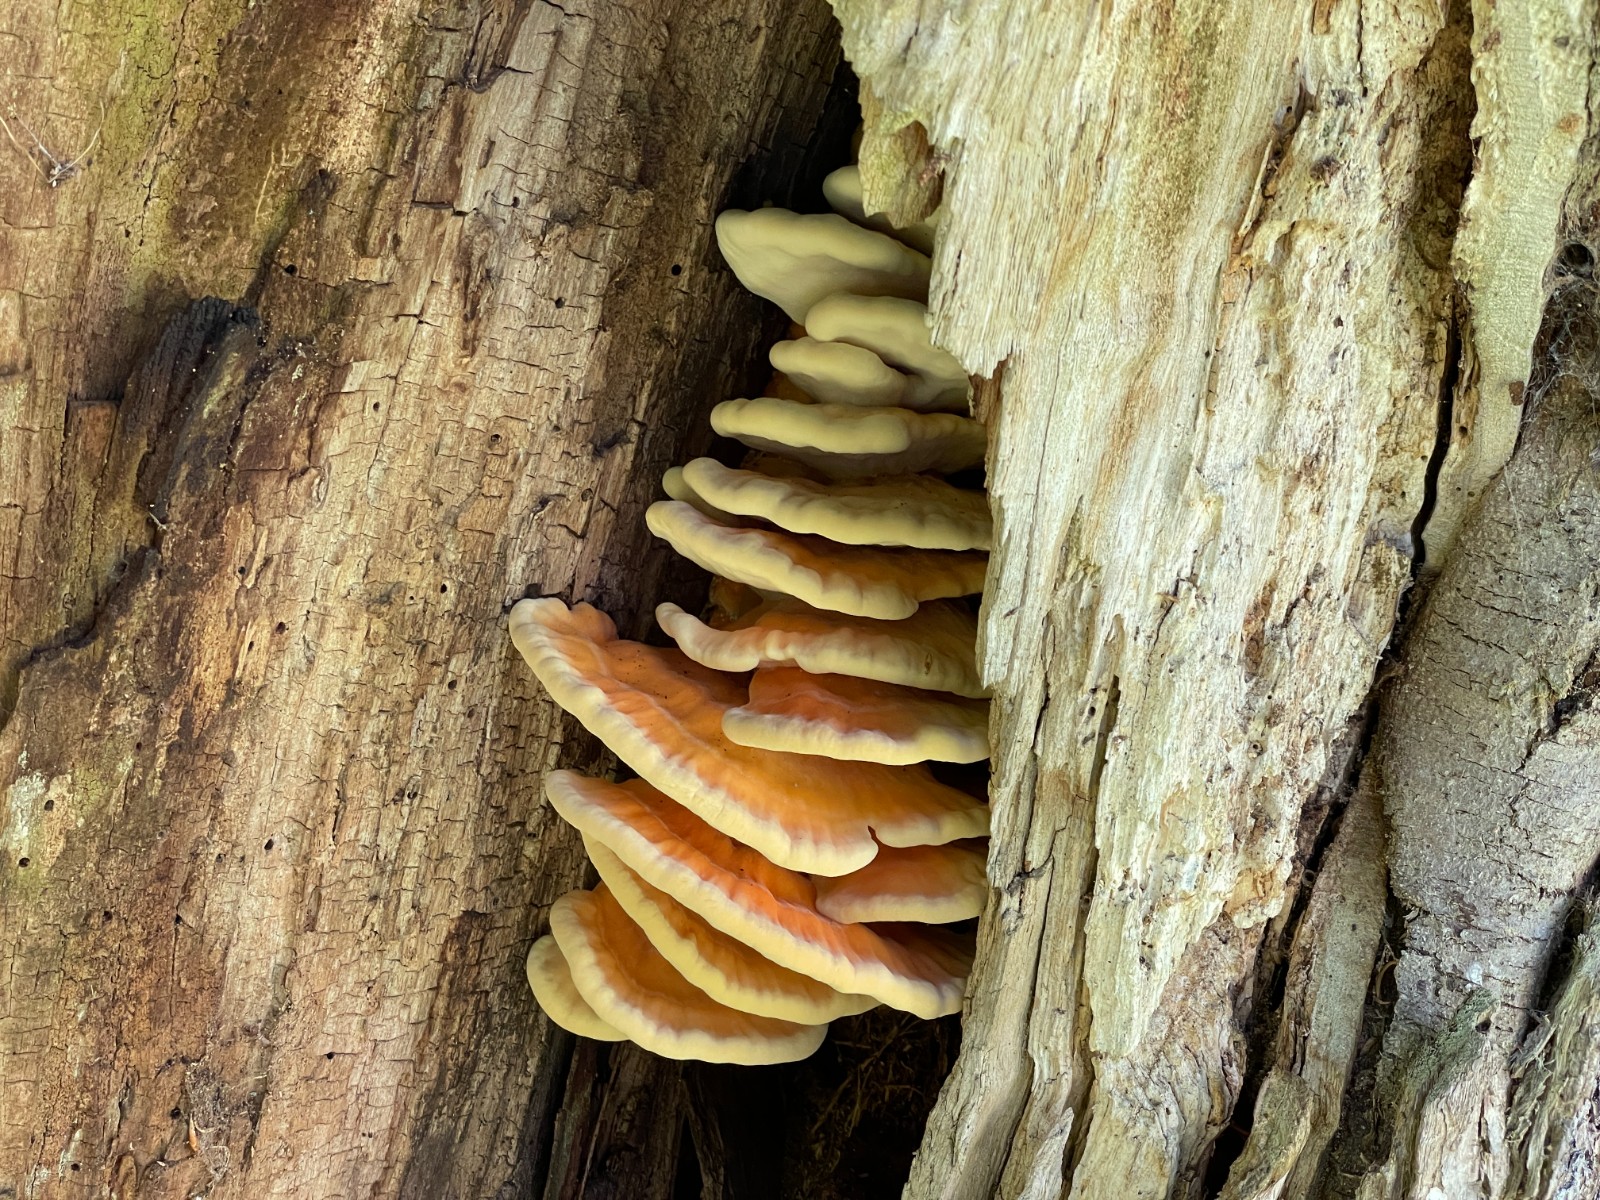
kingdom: Fungi
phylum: Basidiomycota
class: Agaricomycetes
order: Polyporales
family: Laetiporaceae
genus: Laetiporus
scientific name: Laetiporus sulphureus
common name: svovlporesvamp
